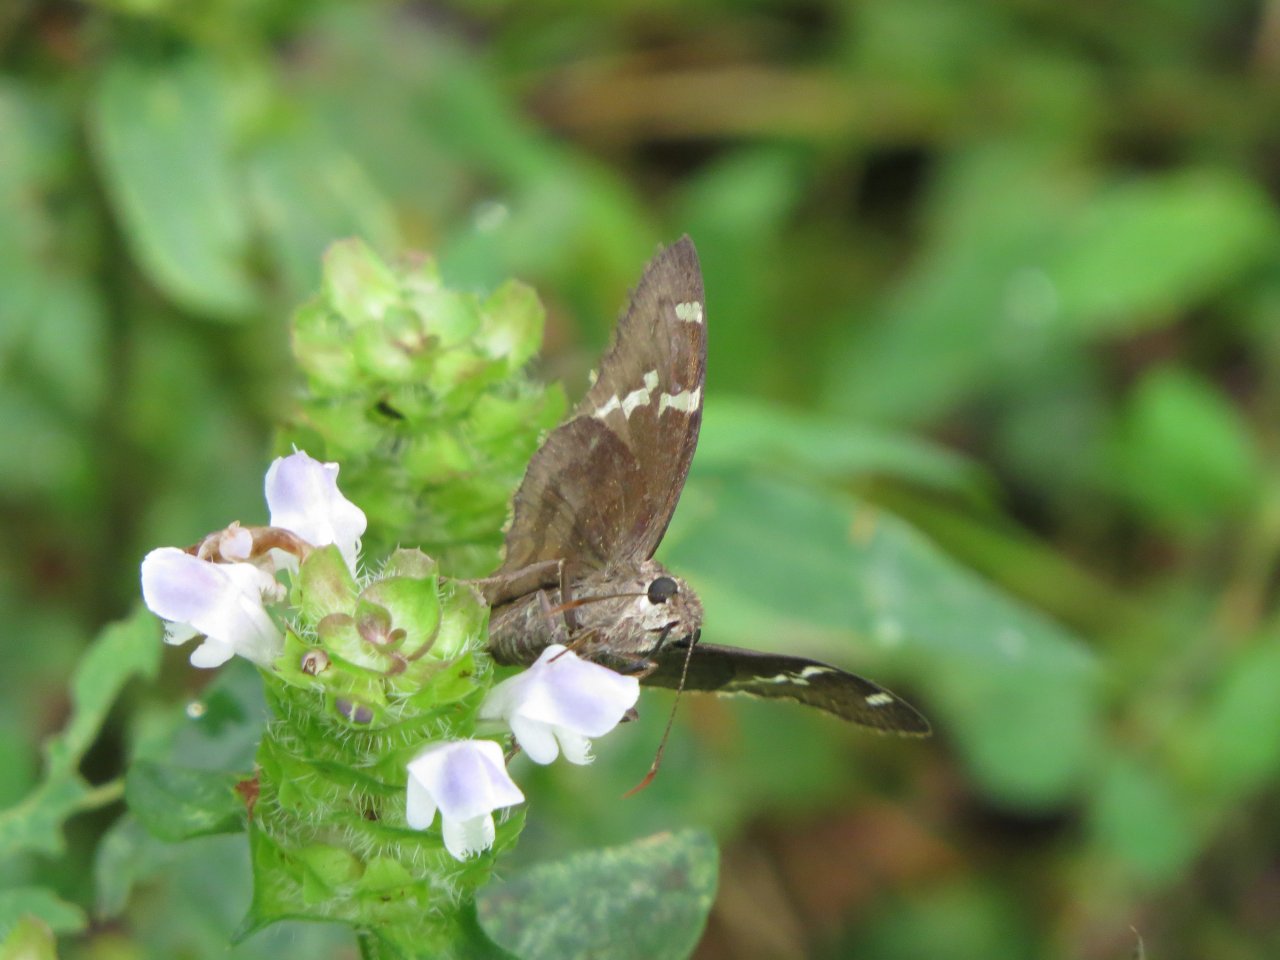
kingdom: Animalia
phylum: Arthropoda
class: Insecta
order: Lepidoptera
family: Hesperiidae
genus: Autochton
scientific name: Autochton
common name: Southern Cloudywing
